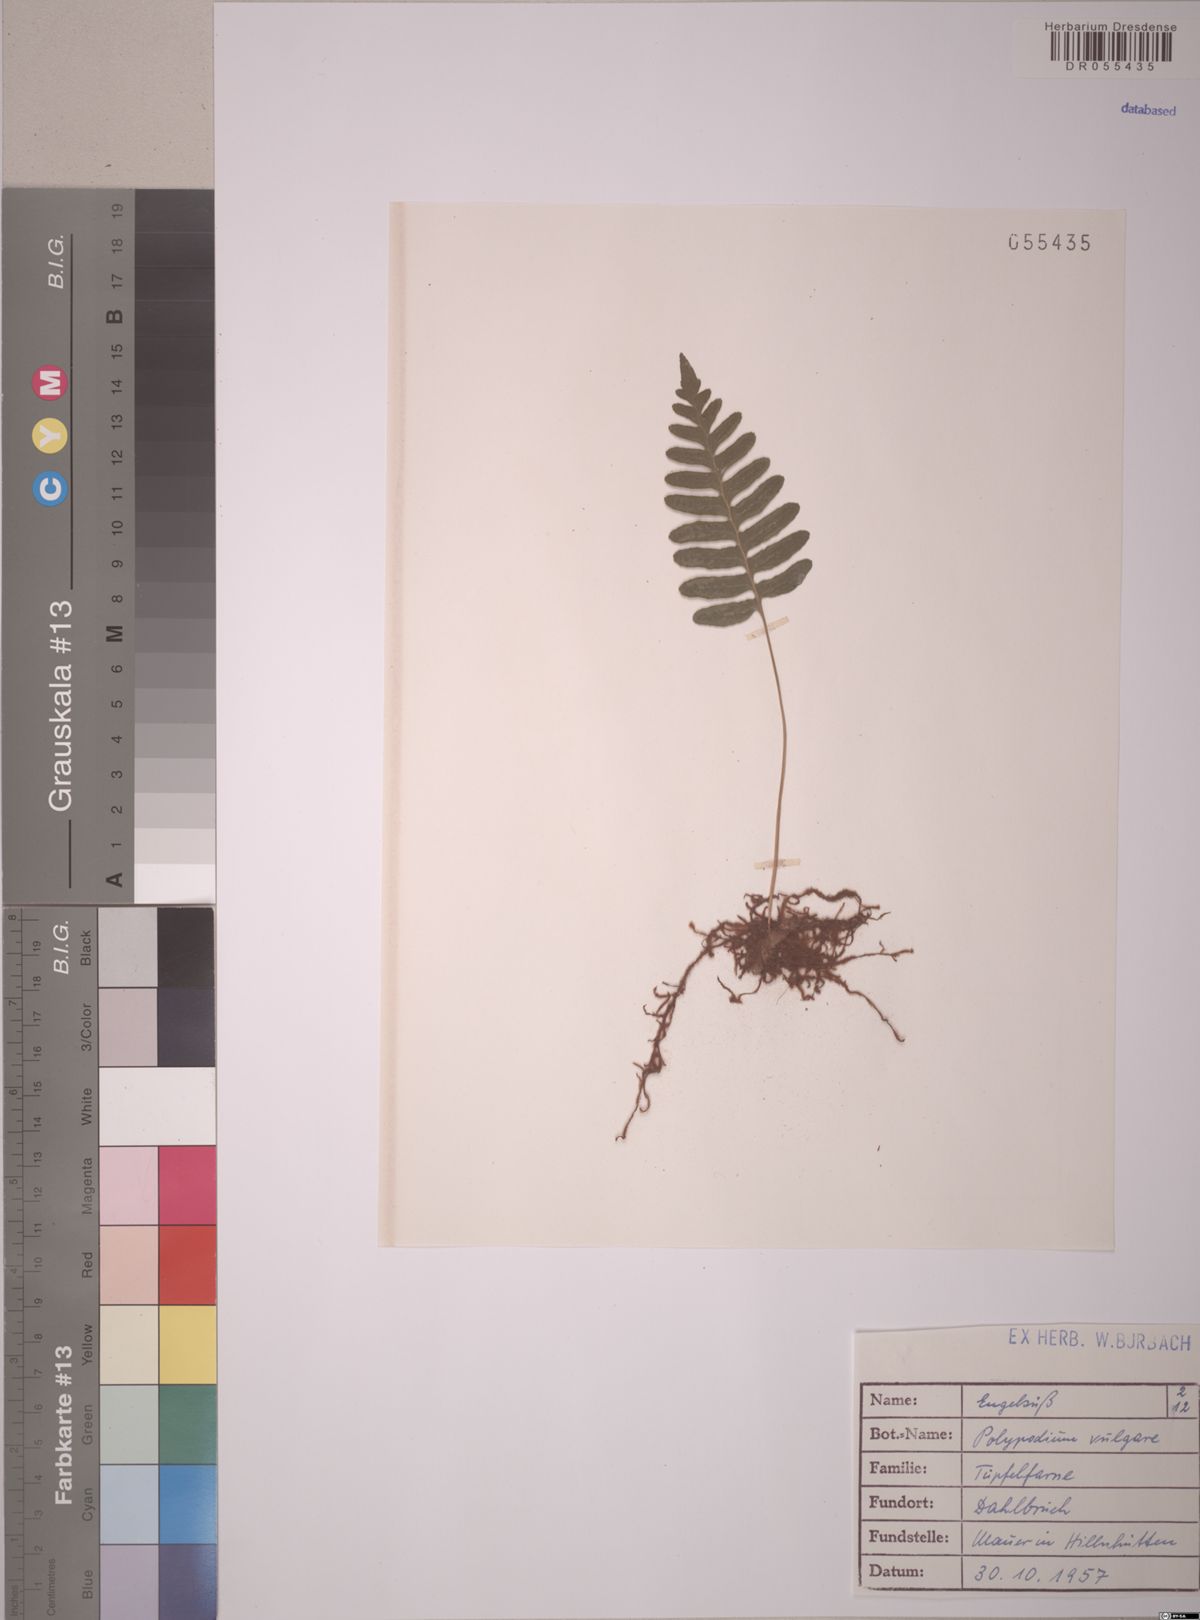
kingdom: Plantae
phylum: Tracheophyta
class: Polypodiopsida
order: Polypodiales
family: Polypodiaceae
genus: Polypodium
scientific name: Polypodium vulgare
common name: Common polypody
